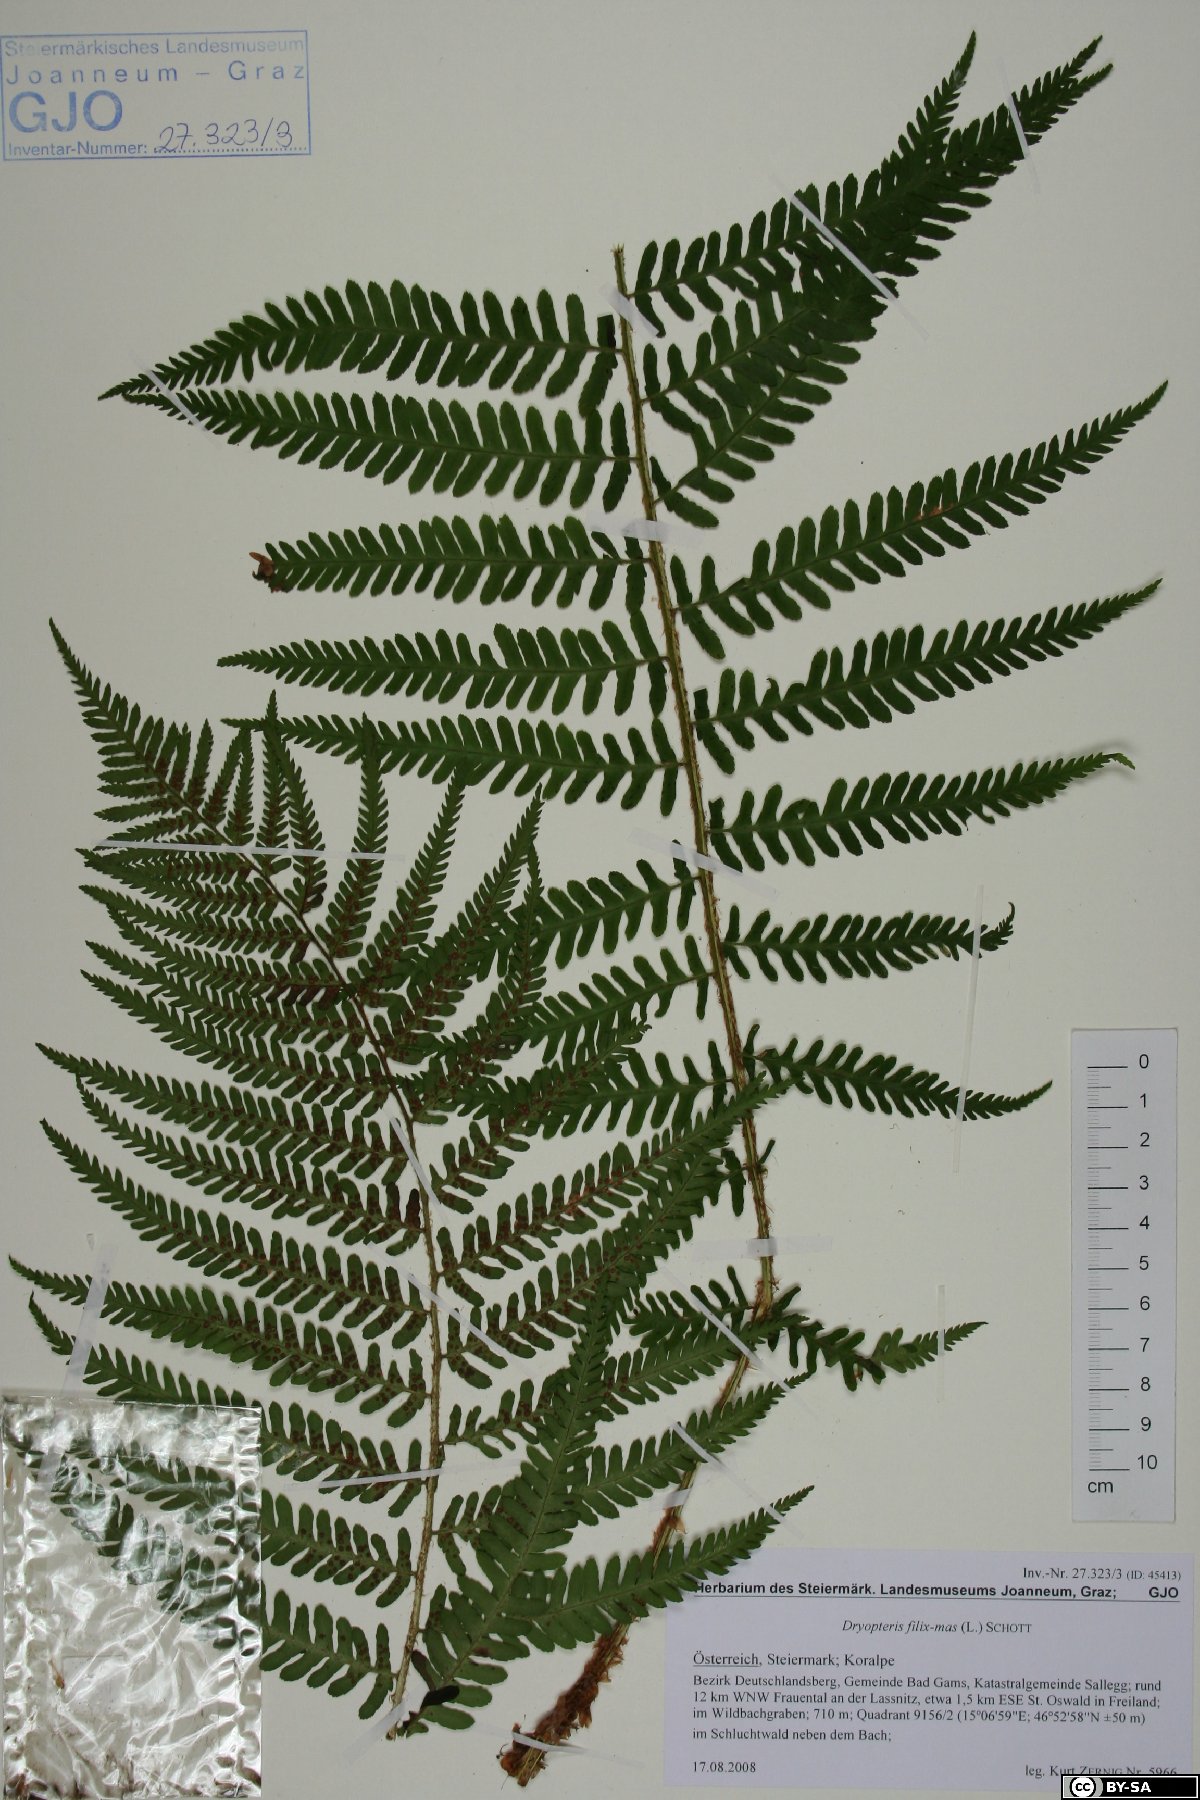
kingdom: Plantae
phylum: Tracheophyta
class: Polypodiopsida
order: Polypodiales
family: Dryopteridaceae
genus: Dryopteris
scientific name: Dryopteris filix-mas
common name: Male fern
